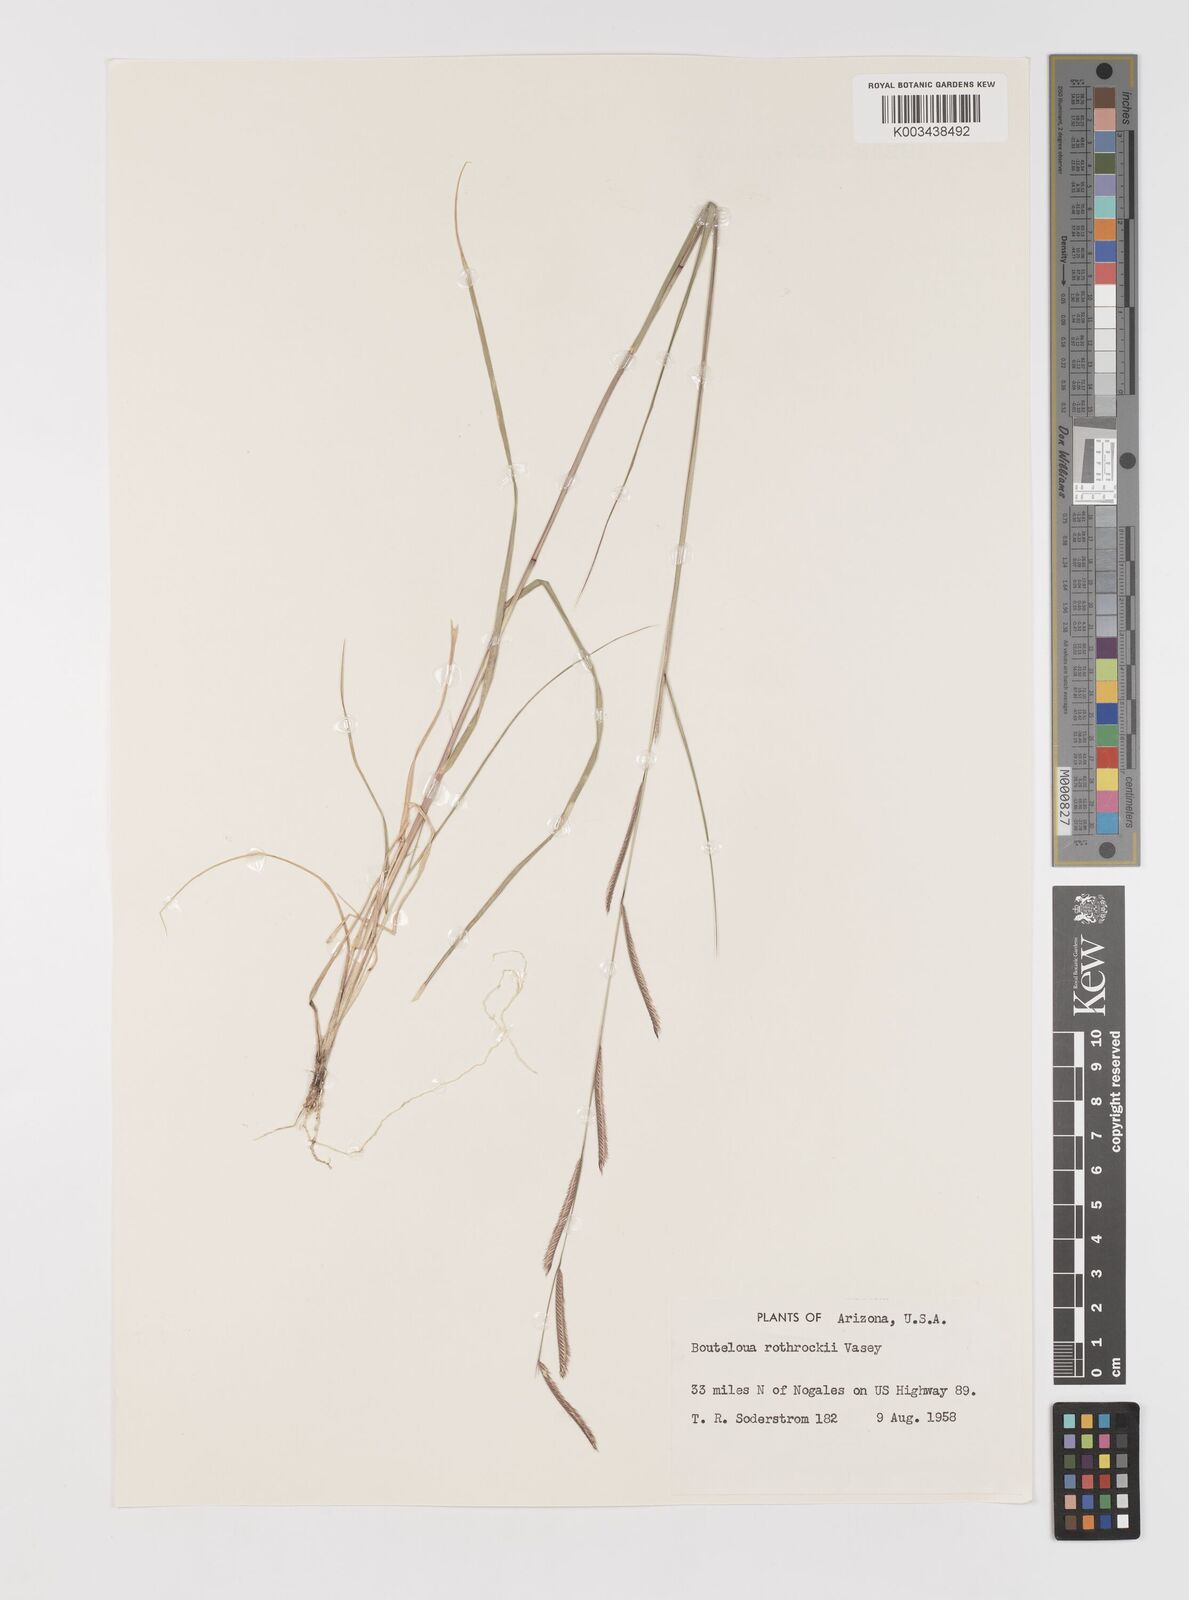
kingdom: Plantae
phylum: Tracheophyta
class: Liliopsida
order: Poales
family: Poaceae
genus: Bouteloua
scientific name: Bouteloua
